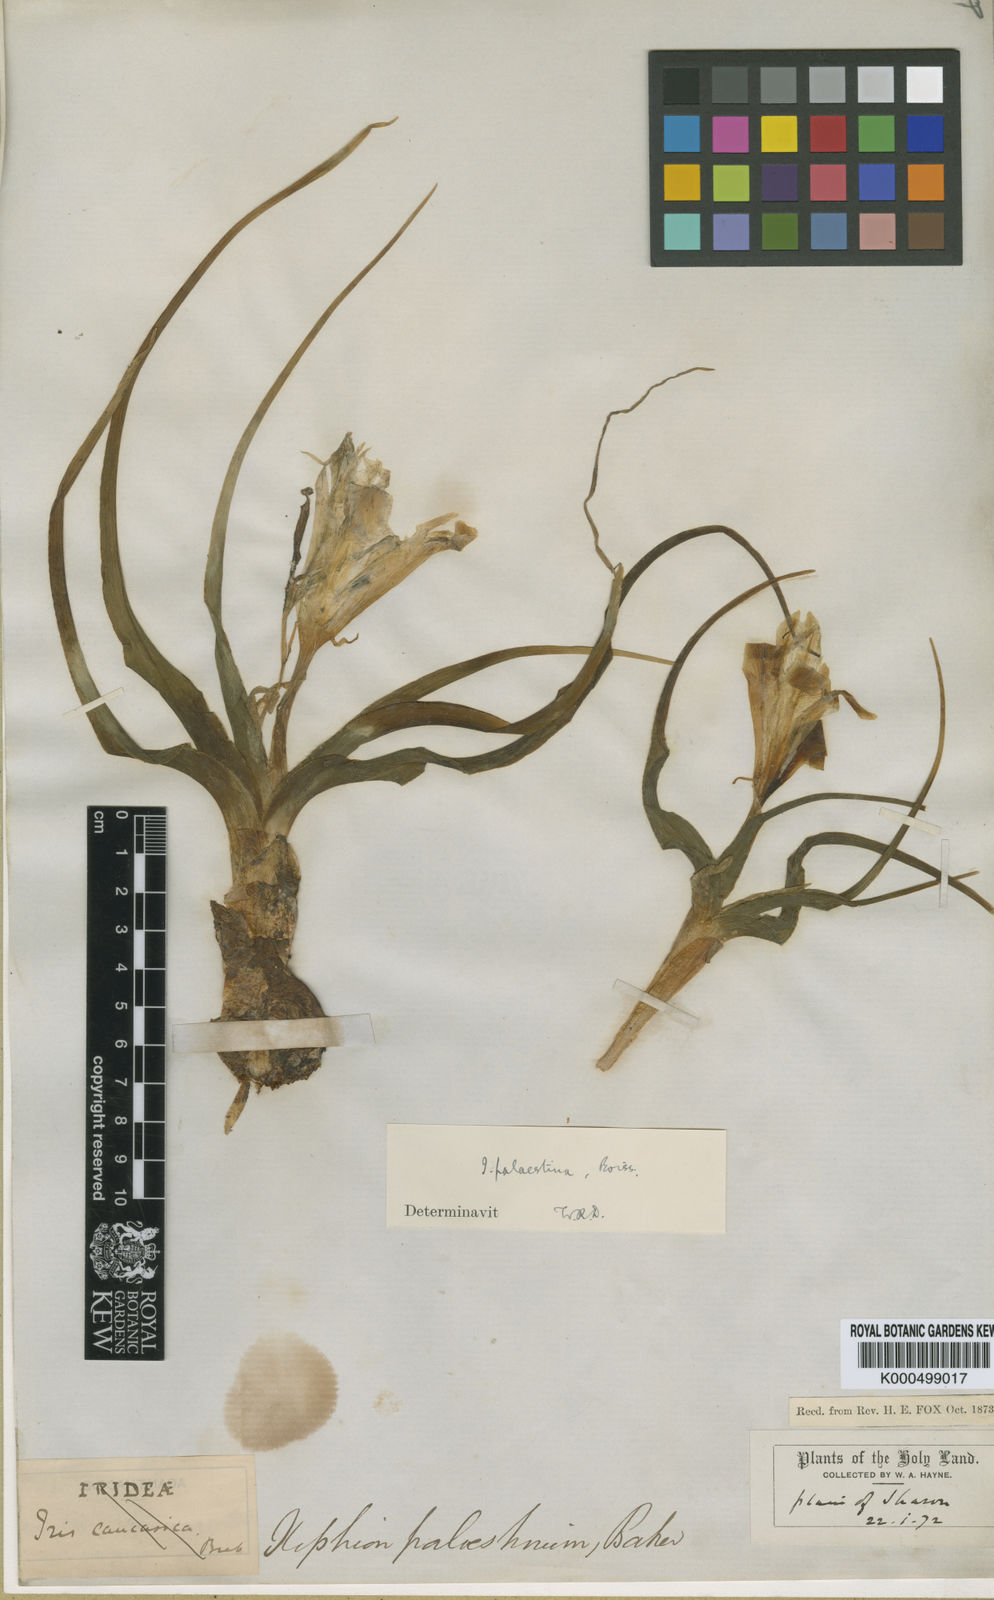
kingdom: Plantae
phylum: Tracheophyta
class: Liliopsida
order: Asparagales
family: Iridaceae
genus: Iris
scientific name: Iris
